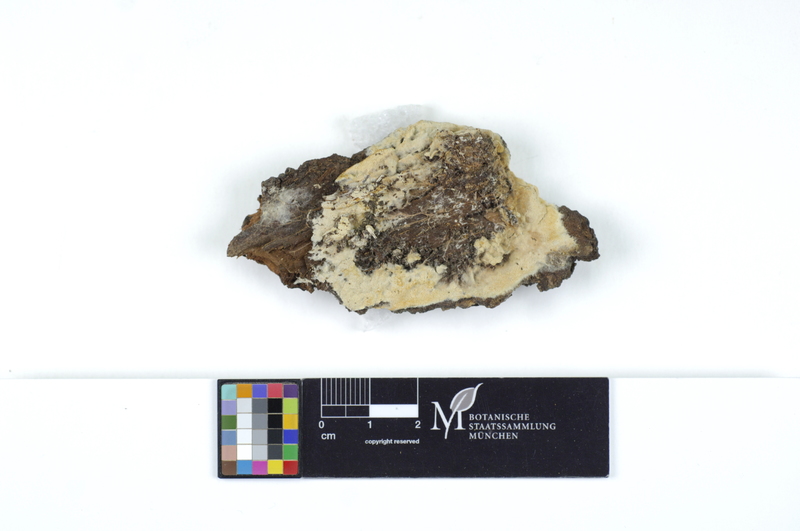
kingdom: Fungi
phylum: Basidiomycota
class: Agaricomycetes
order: Polyporales
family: Irpicaceae
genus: Ceriporia
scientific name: Ceriporia excelsa
